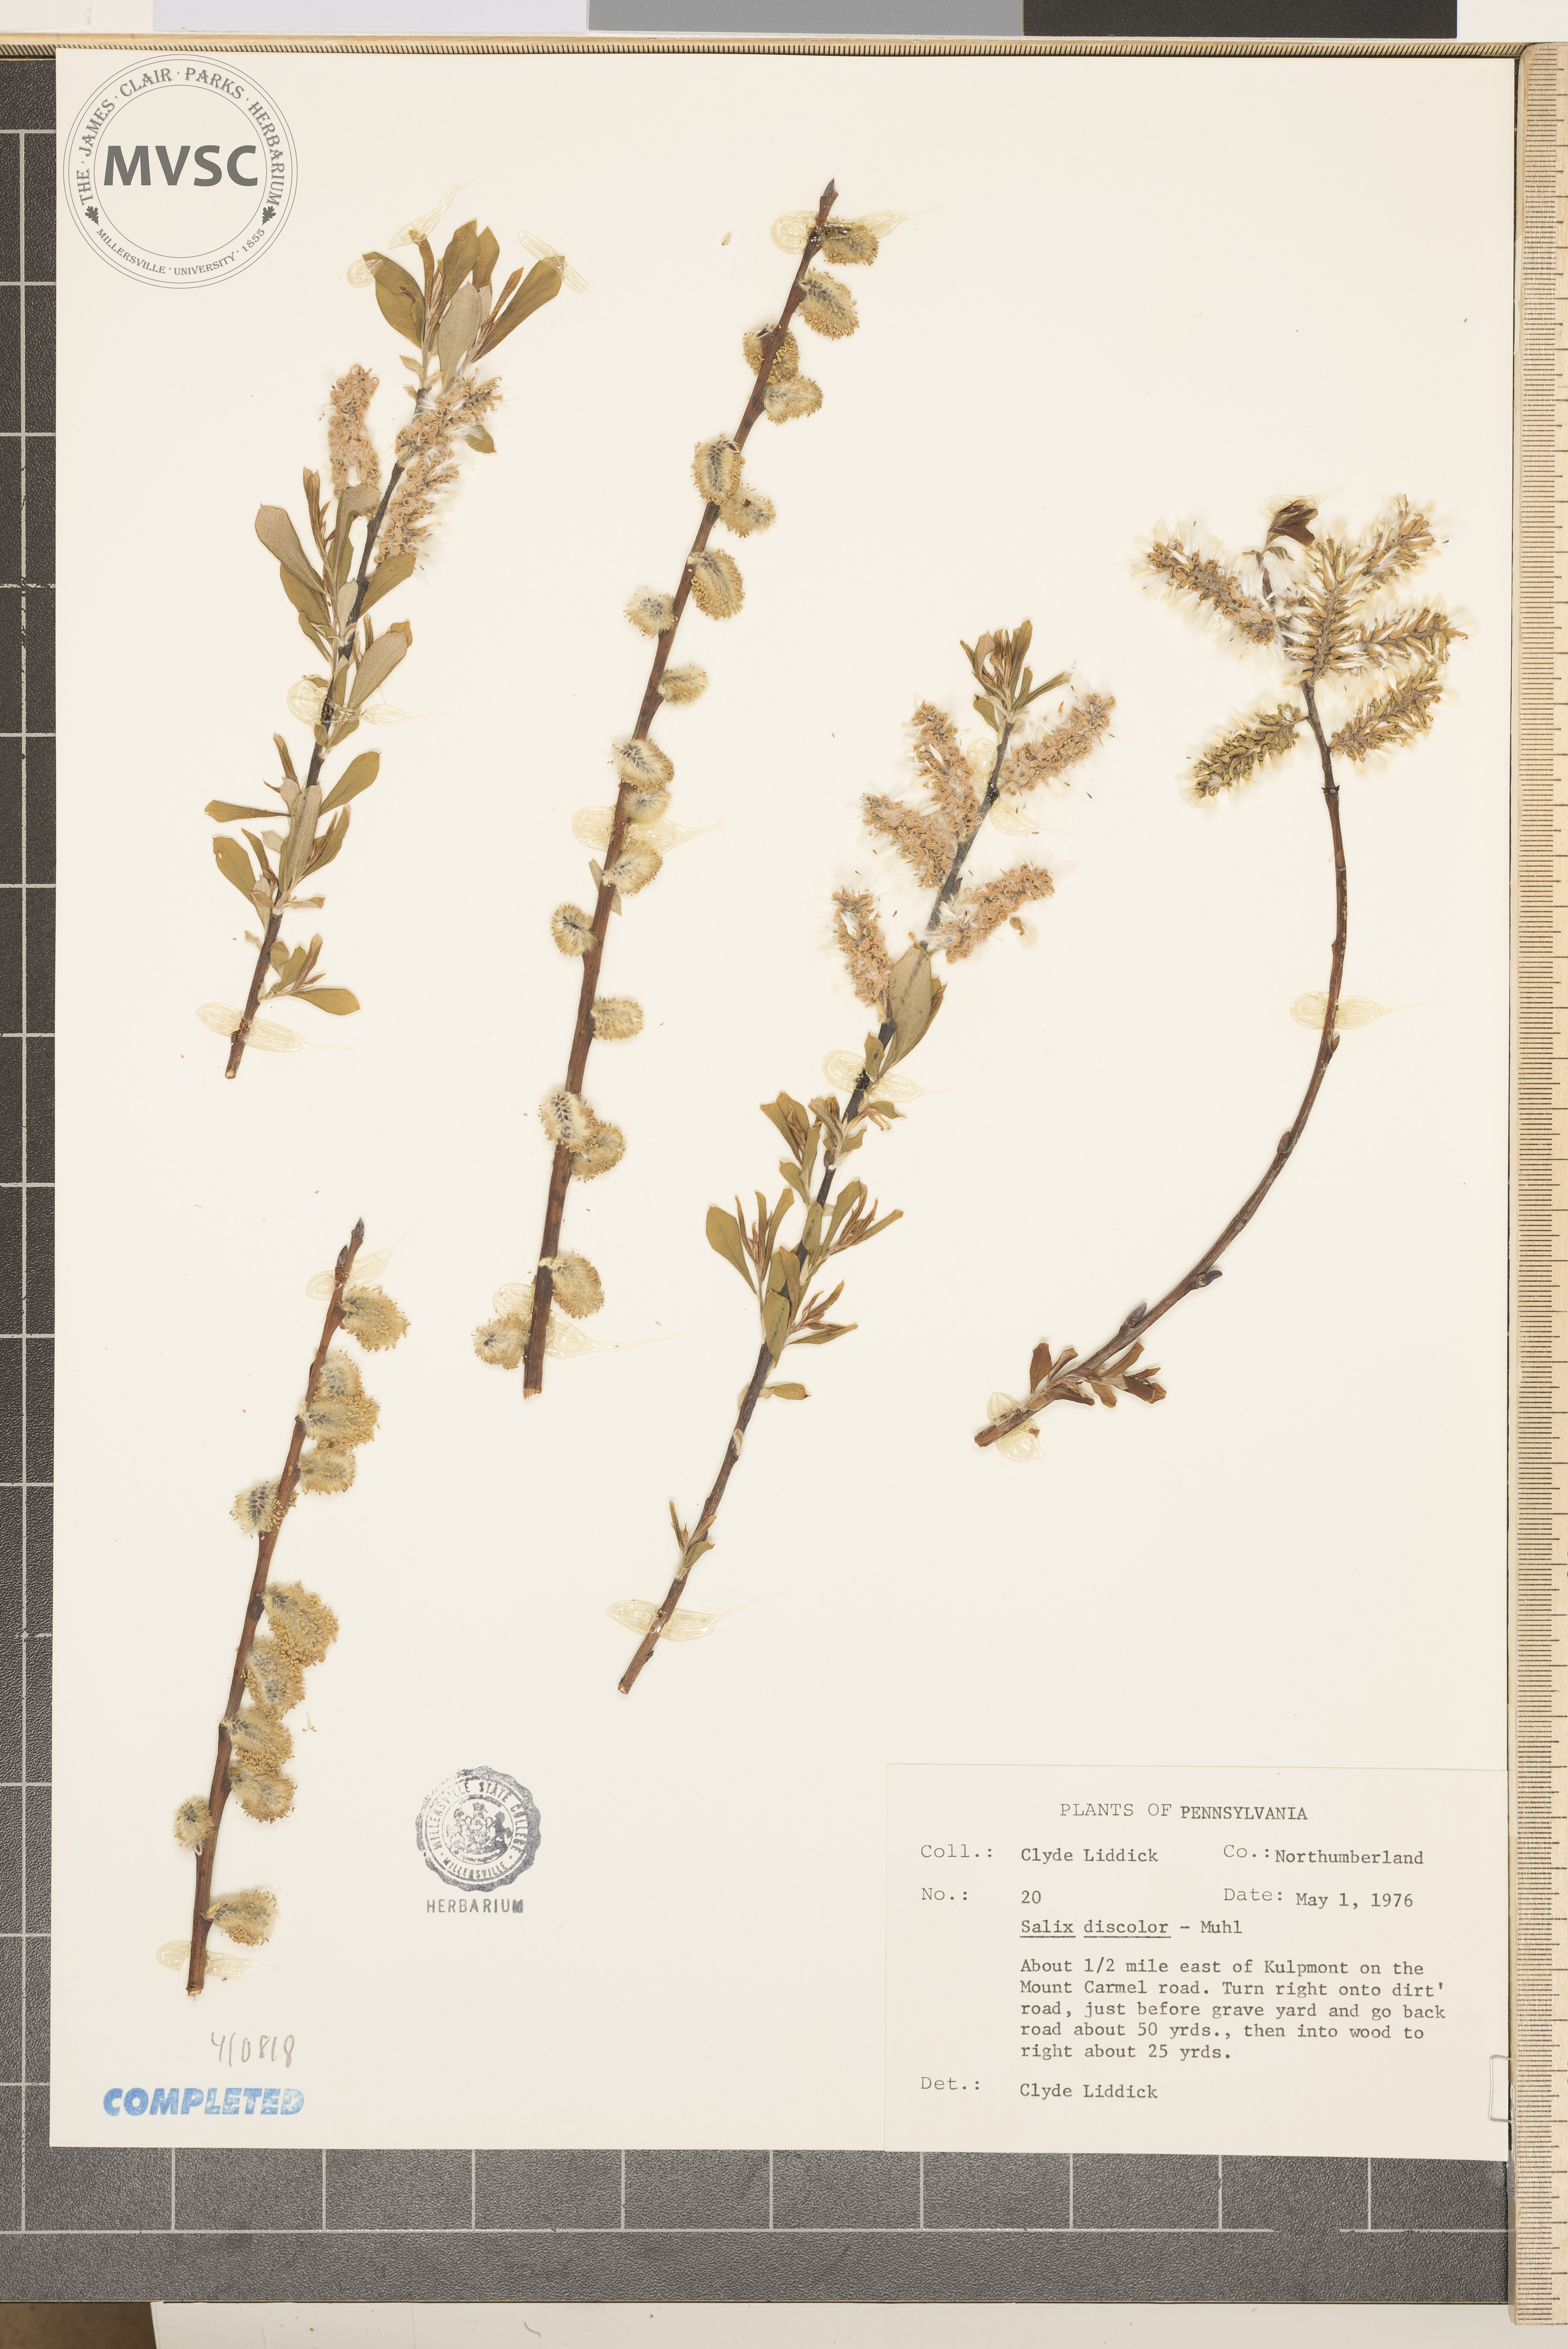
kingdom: Plantae
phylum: Tracheophyta
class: Magnoliopsida
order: Malpighiales
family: Salicaceae
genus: Salix
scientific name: Salix discolor
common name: Glaucous willow
